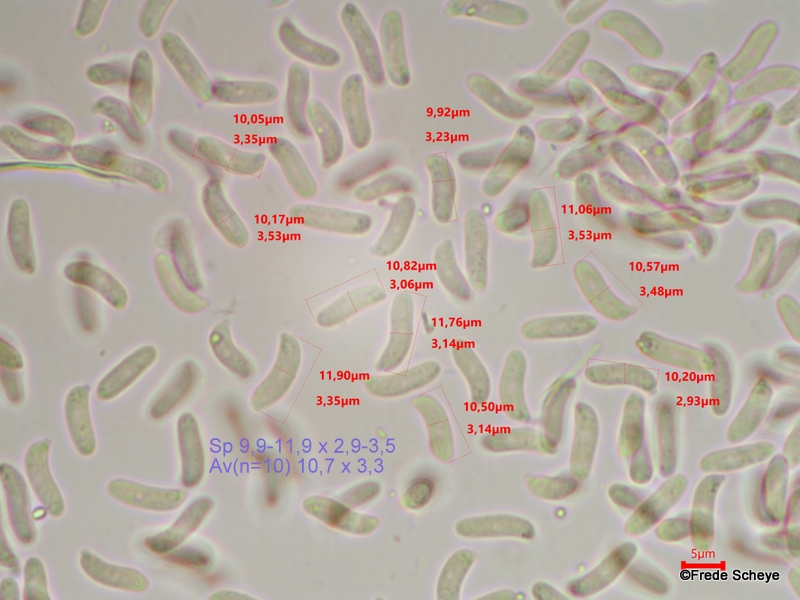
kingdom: Fungi
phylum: Basidiomycota
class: Agaricomycetes
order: Hymenochaetales
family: Schizoporaceae
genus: Xylodon
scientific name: Xylodon radula
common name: grovtandet kalkskind
